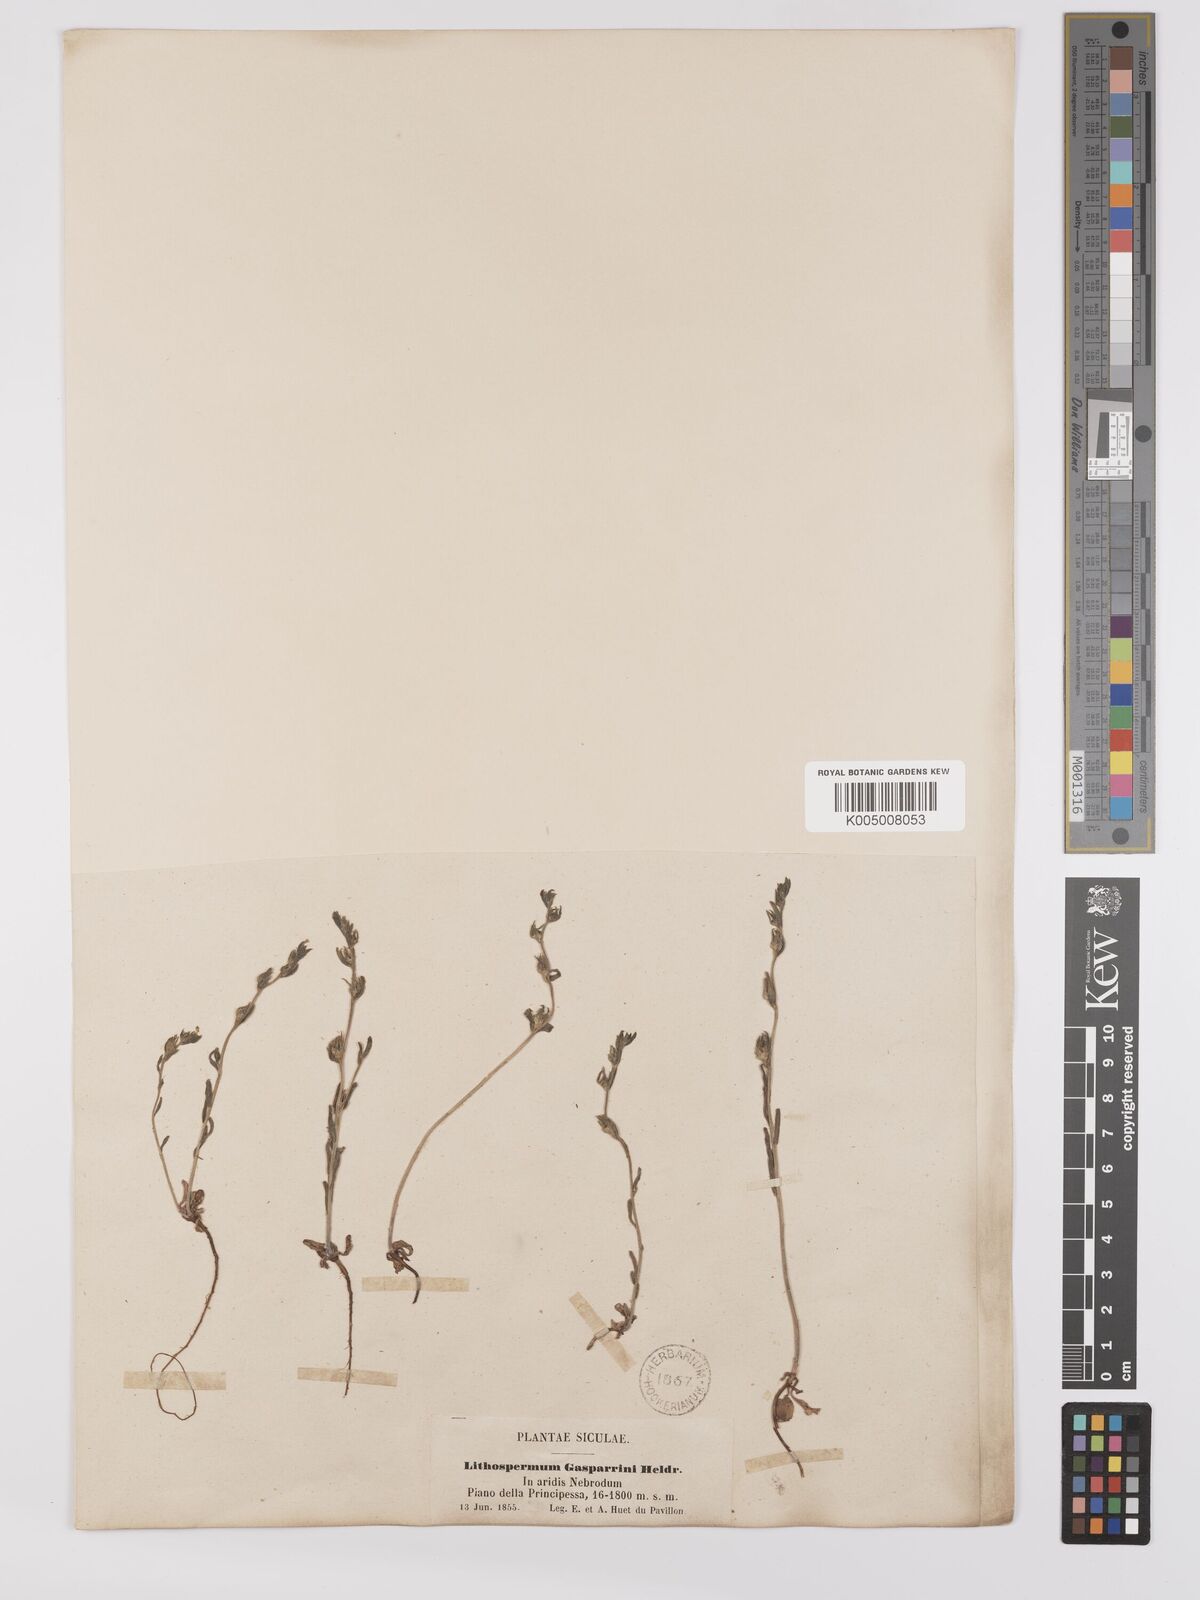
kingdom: Plantae
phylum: Tracheophyta
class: Magnoliopsida
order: Boraginales
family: Boraginaceae
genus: Buglossoides
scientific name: Buglossoides incrassata
